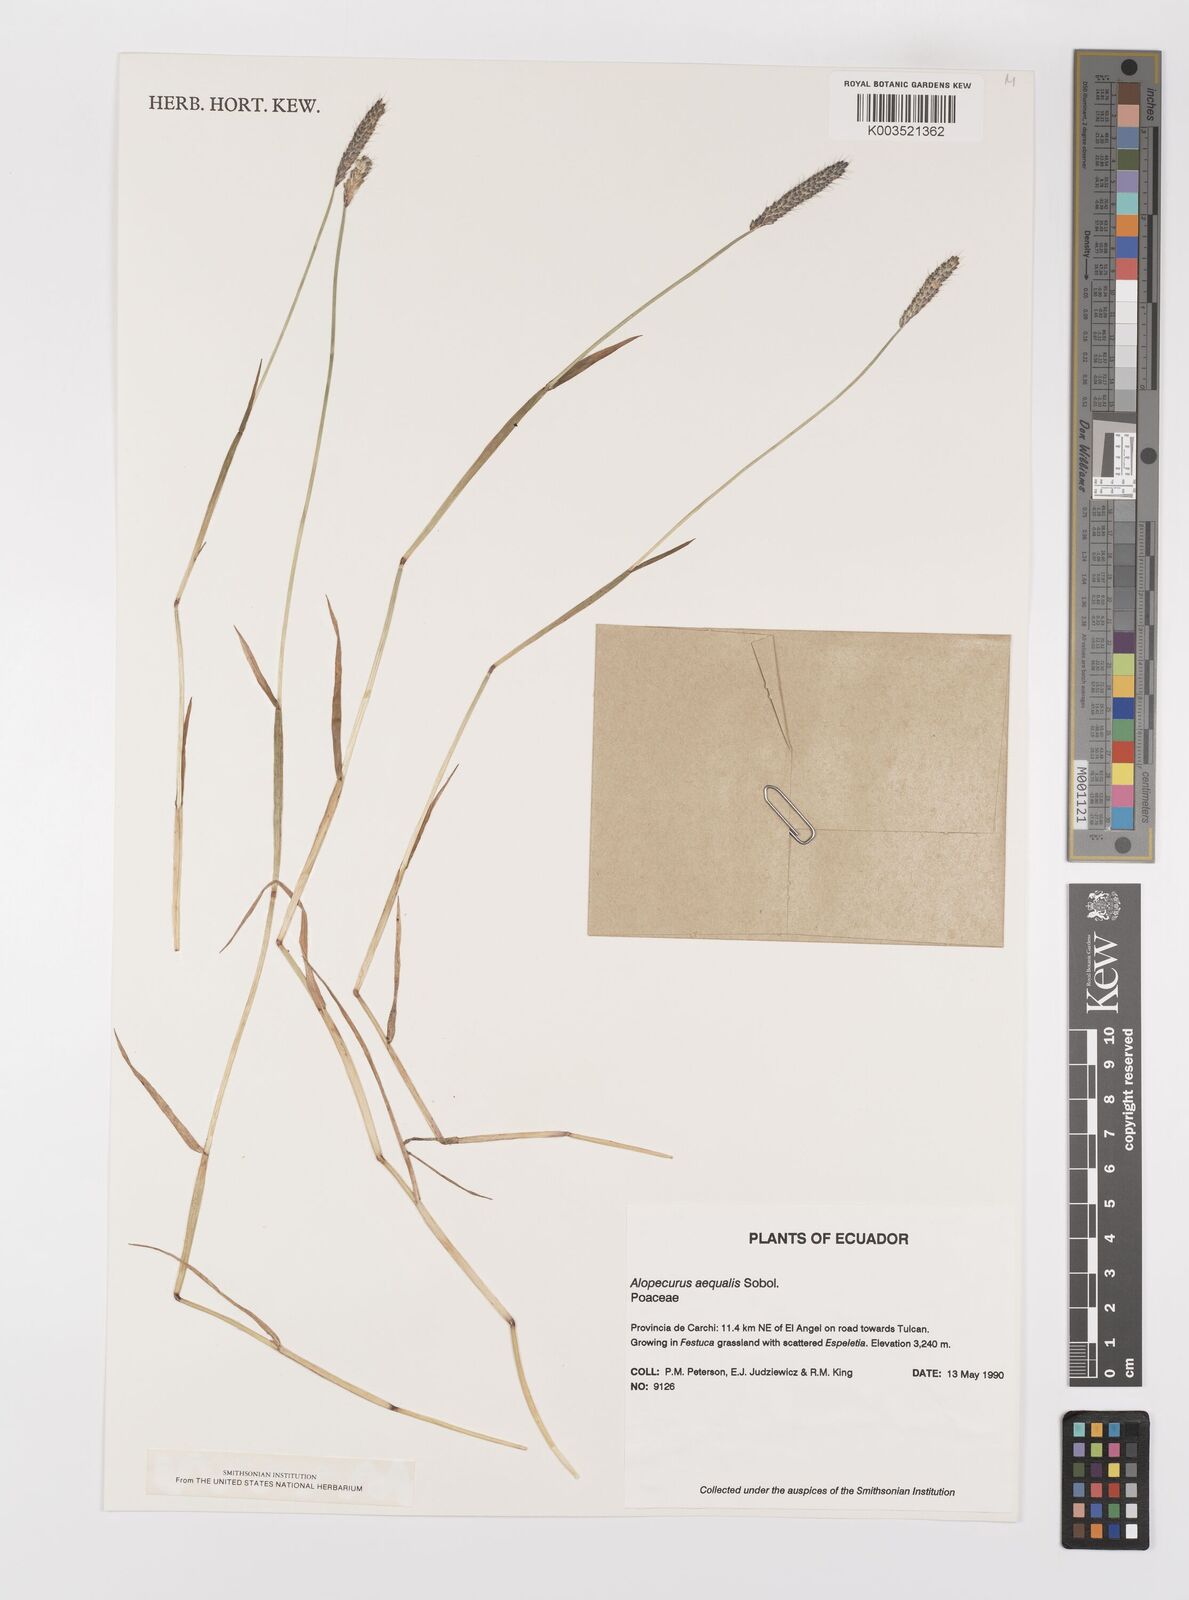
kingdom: Plantae
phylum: Tracheophyta
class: Liliopsida
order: Poales
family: Poaceae
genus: Alopecurus
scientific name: Alopecurus aequalis
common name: Orange foxtail
